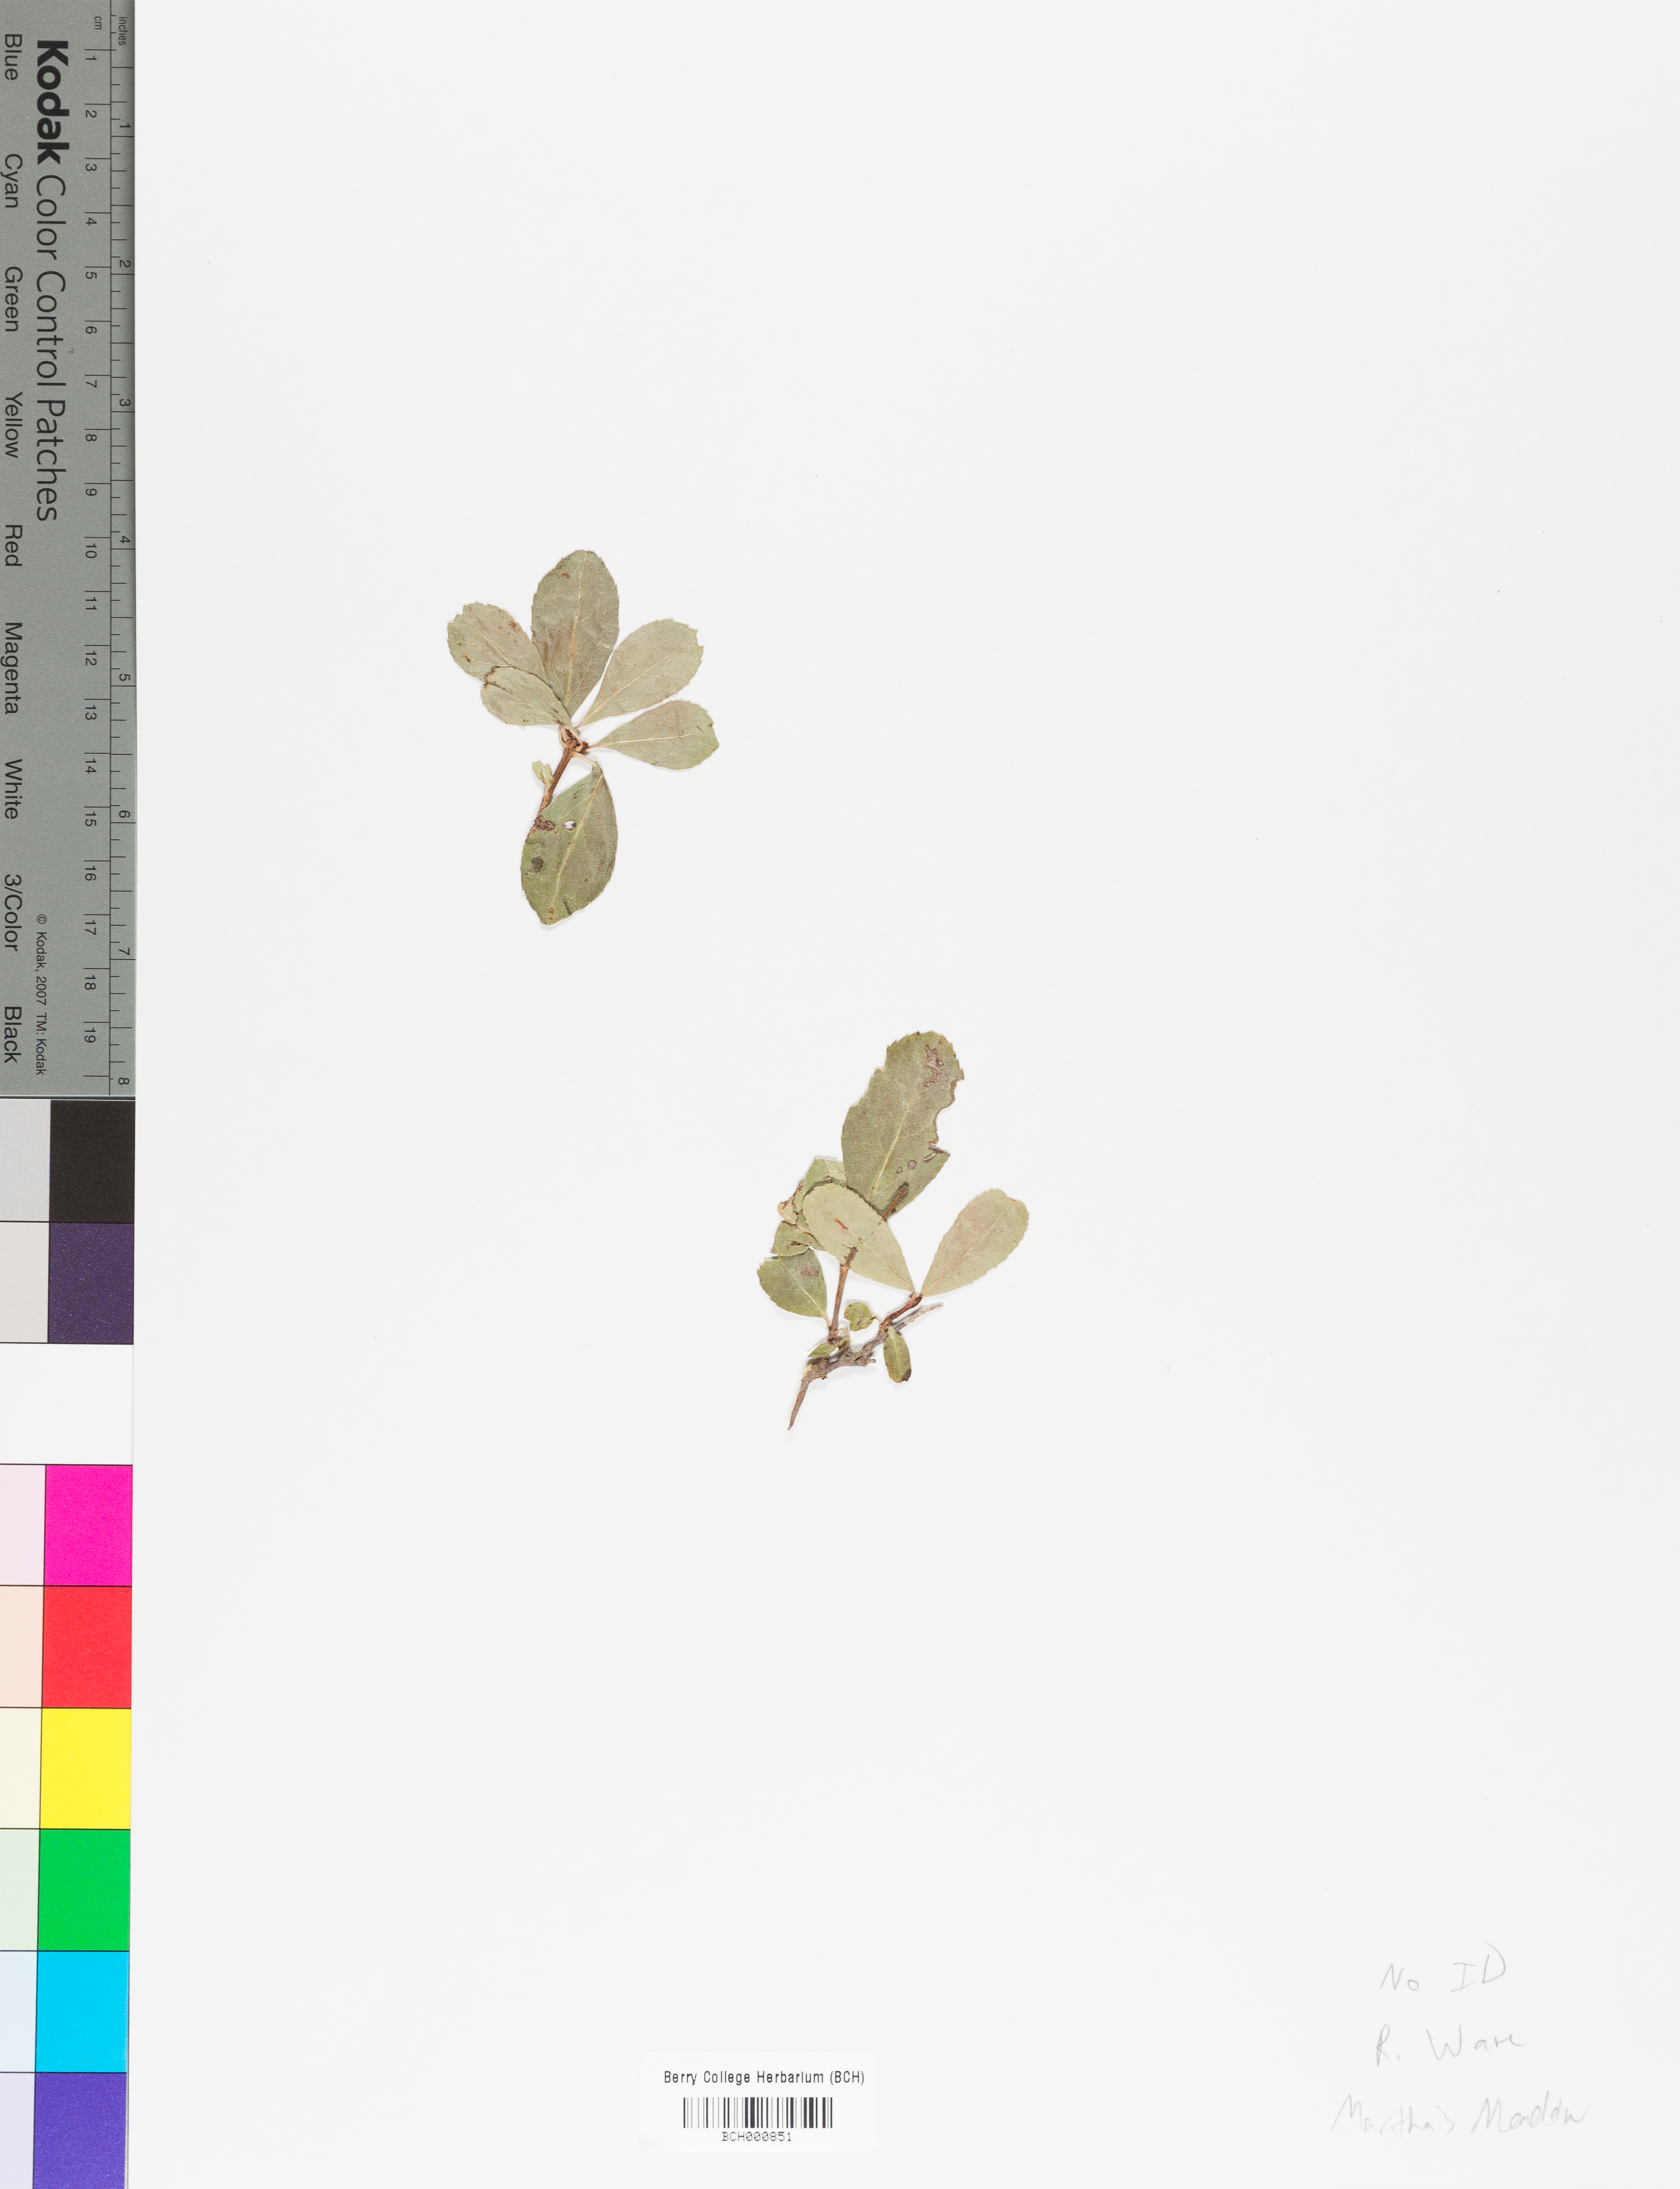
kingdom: Plantae
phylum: Tracheophyta
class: Magnoliopsida
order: Lamiales
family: Acanthaceae
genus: Adhatoda
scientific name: Adhatoda
